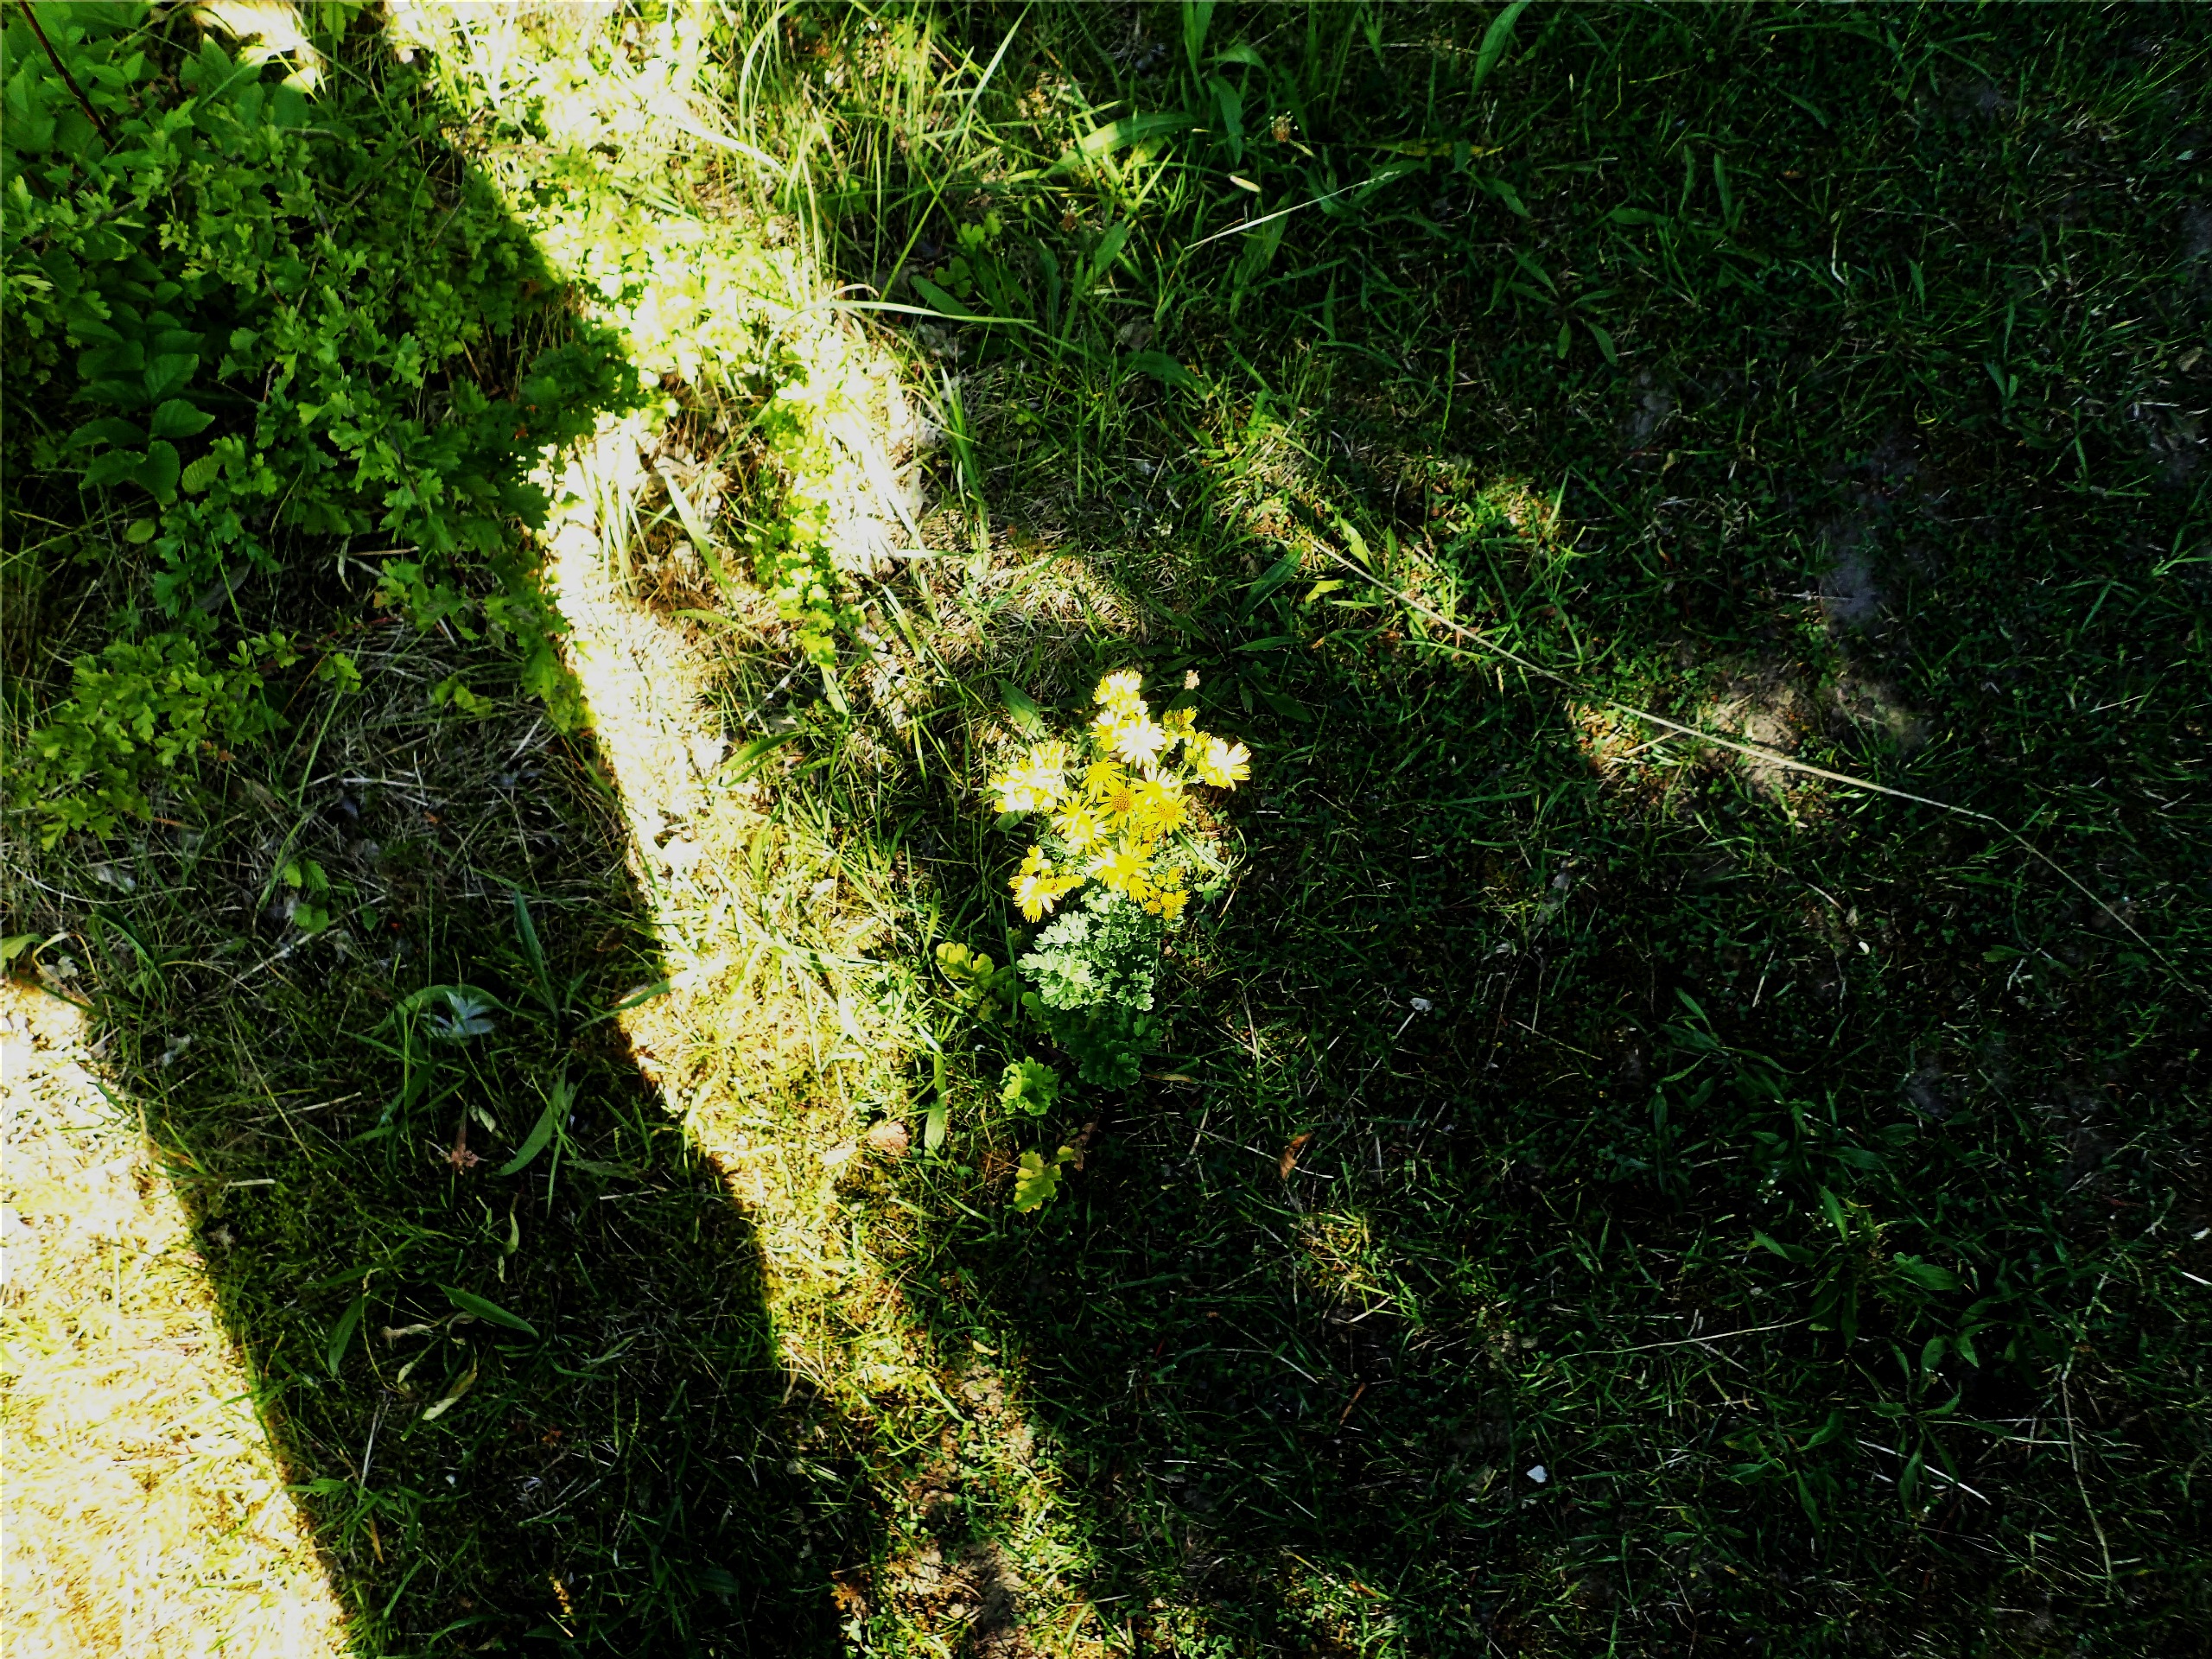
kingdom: Plantae
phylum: Tracheophyta
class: Magnoliopsida
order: Asterales
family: Asteraceae
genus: Jacobaea
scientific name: Jacobaea vulgaris
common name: Eng-brandbæger
